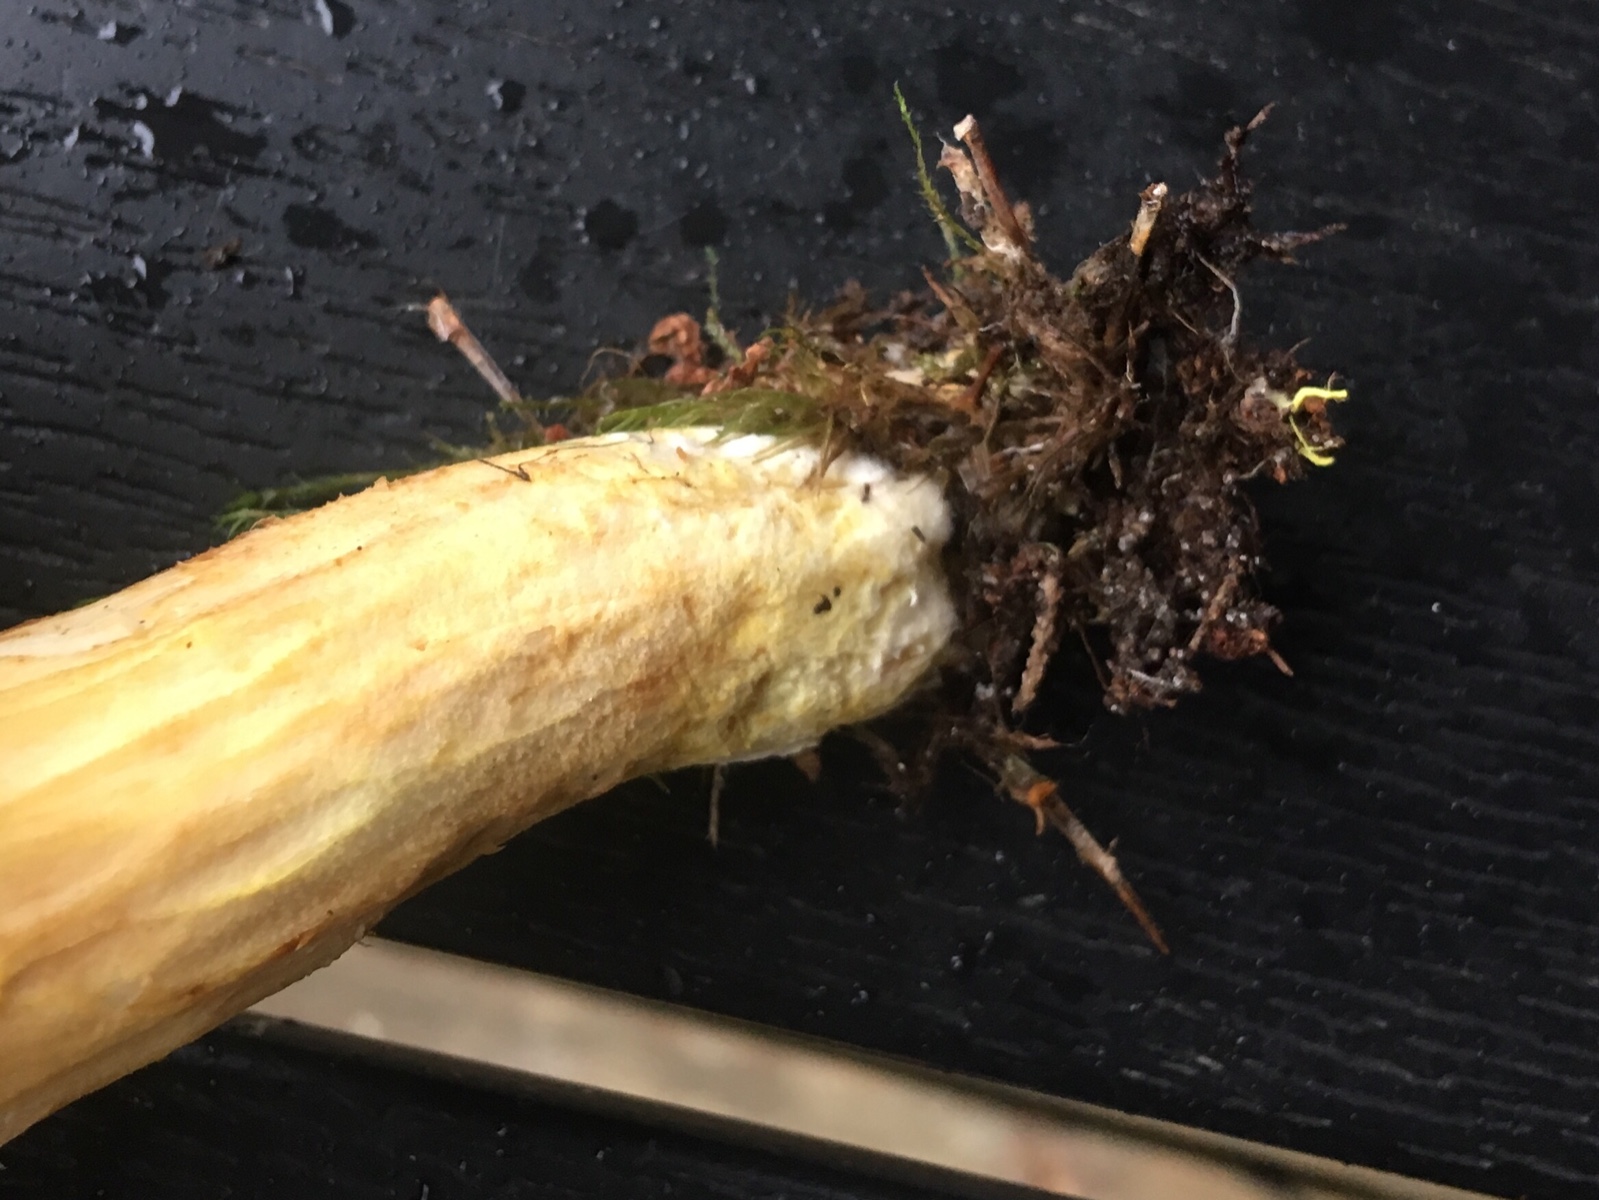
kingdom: Fungi
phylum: Basidiomycota
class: Agaricomycetes
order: Boletales
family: Boletaceae
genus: Xerocomus
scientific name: Xerocomus ferrugineus
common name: vaskeskinds-rørhat
